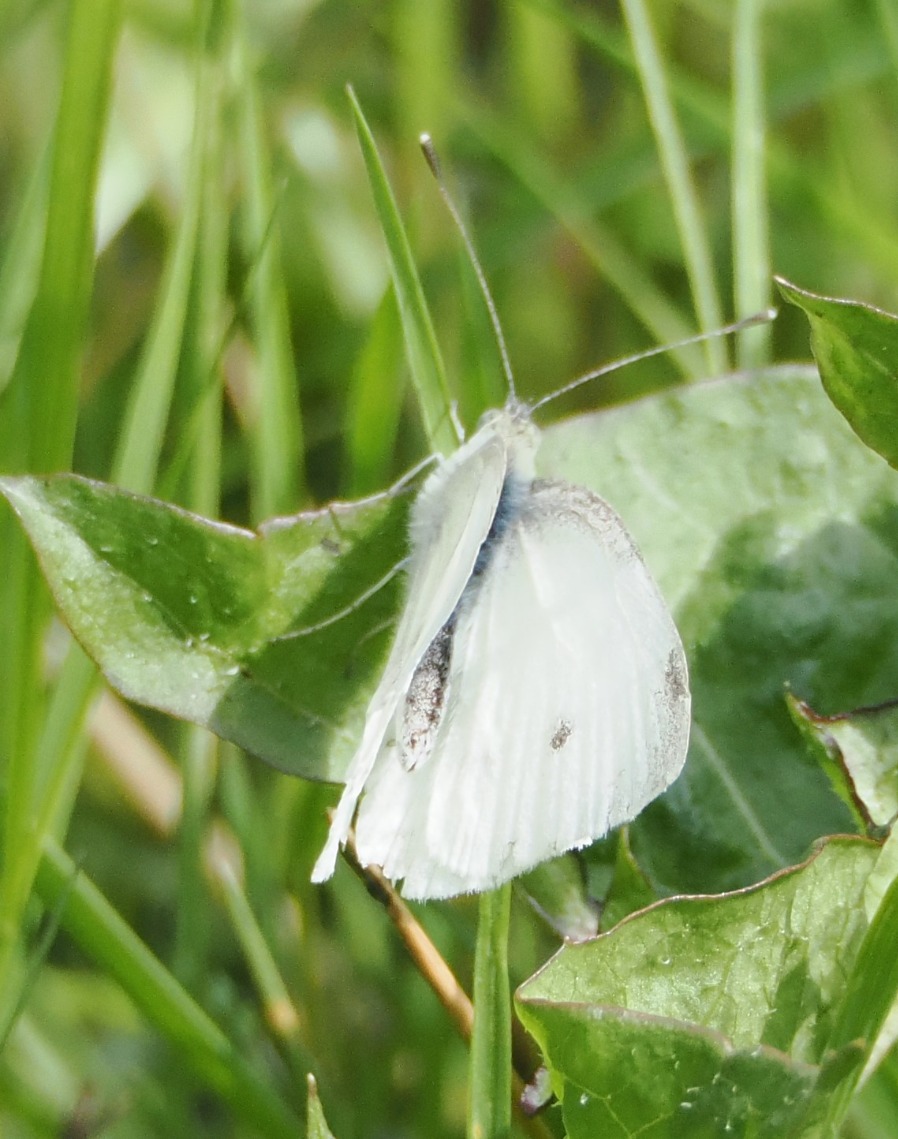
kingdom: Animalia
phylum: Arthropoda
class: Insecta
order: Lepidoptera
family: Pieridae
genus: Pieris
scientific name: Pieris rapae
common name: Lille kålsommerfugl
